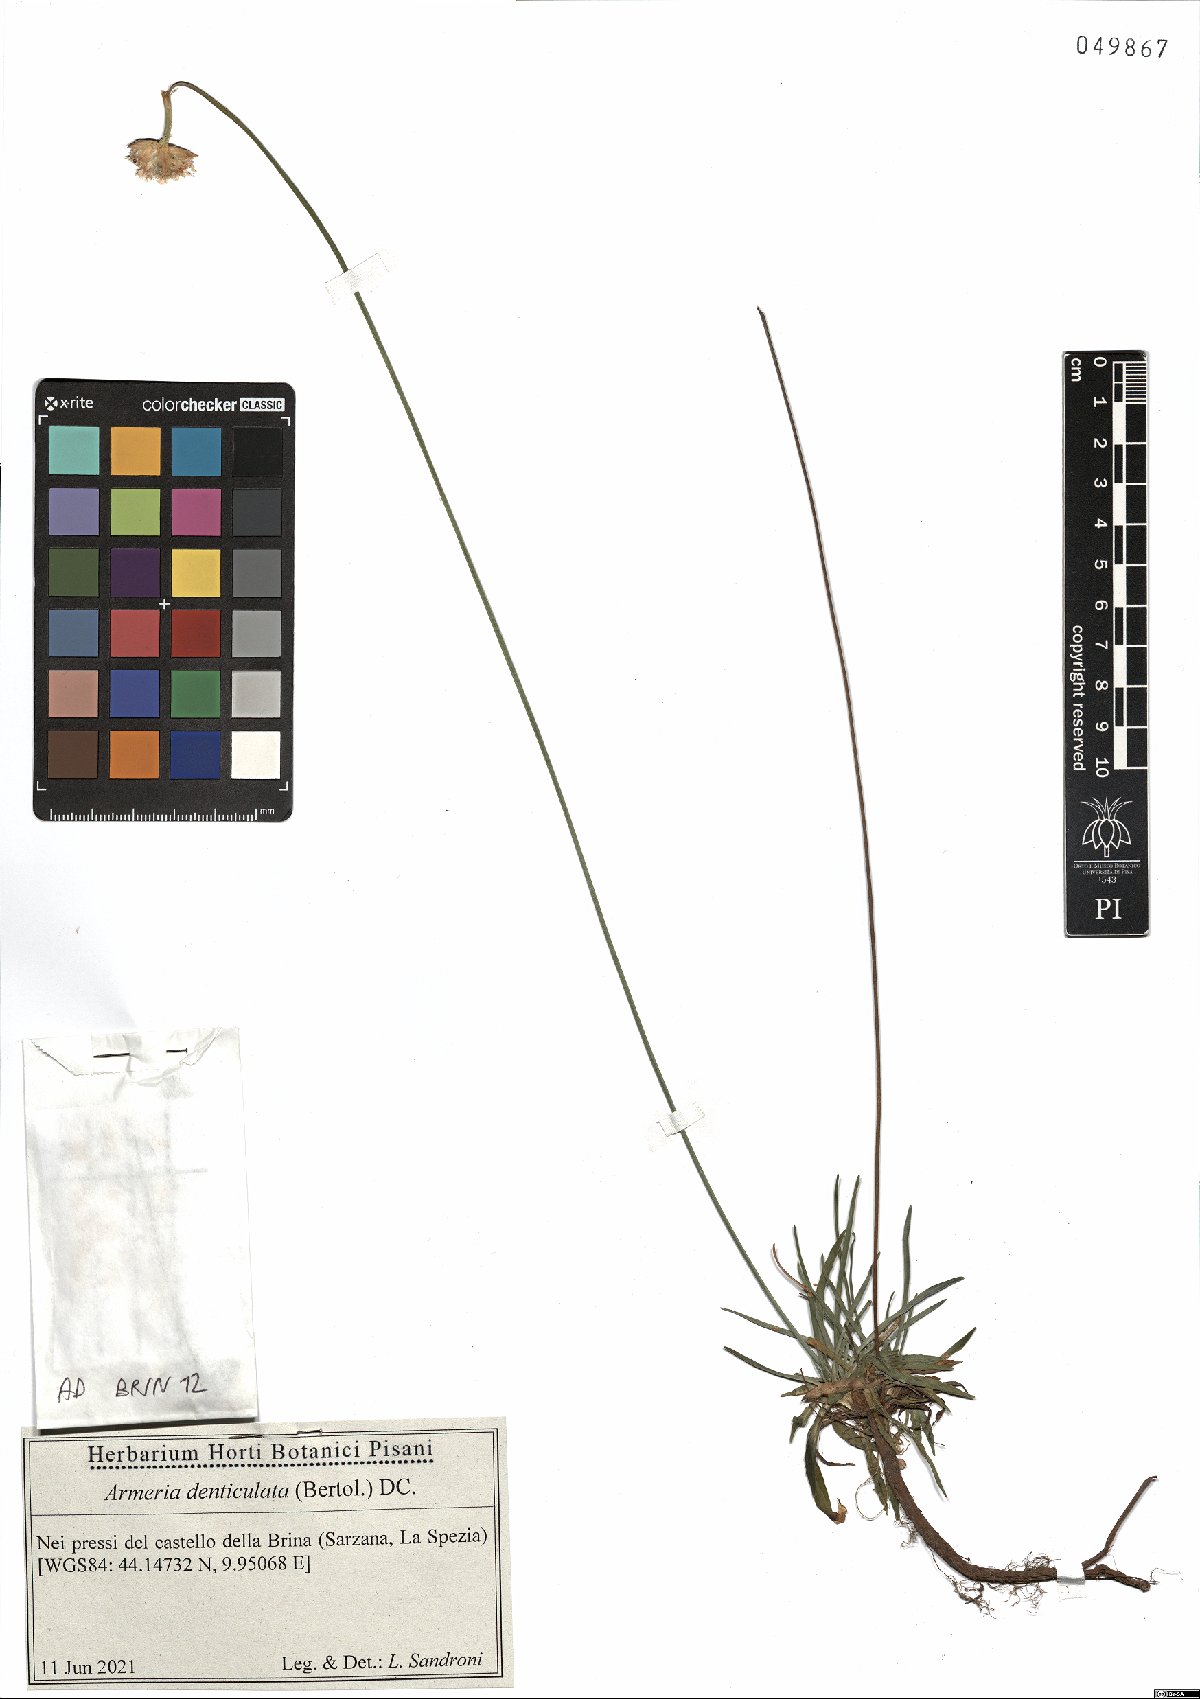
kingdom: Plantae
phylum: Tracheophyta
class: Magnoliopsida
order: Caryophyllales
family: Plumbaginaceae
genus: Armeria
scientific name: Armeria denticulata
